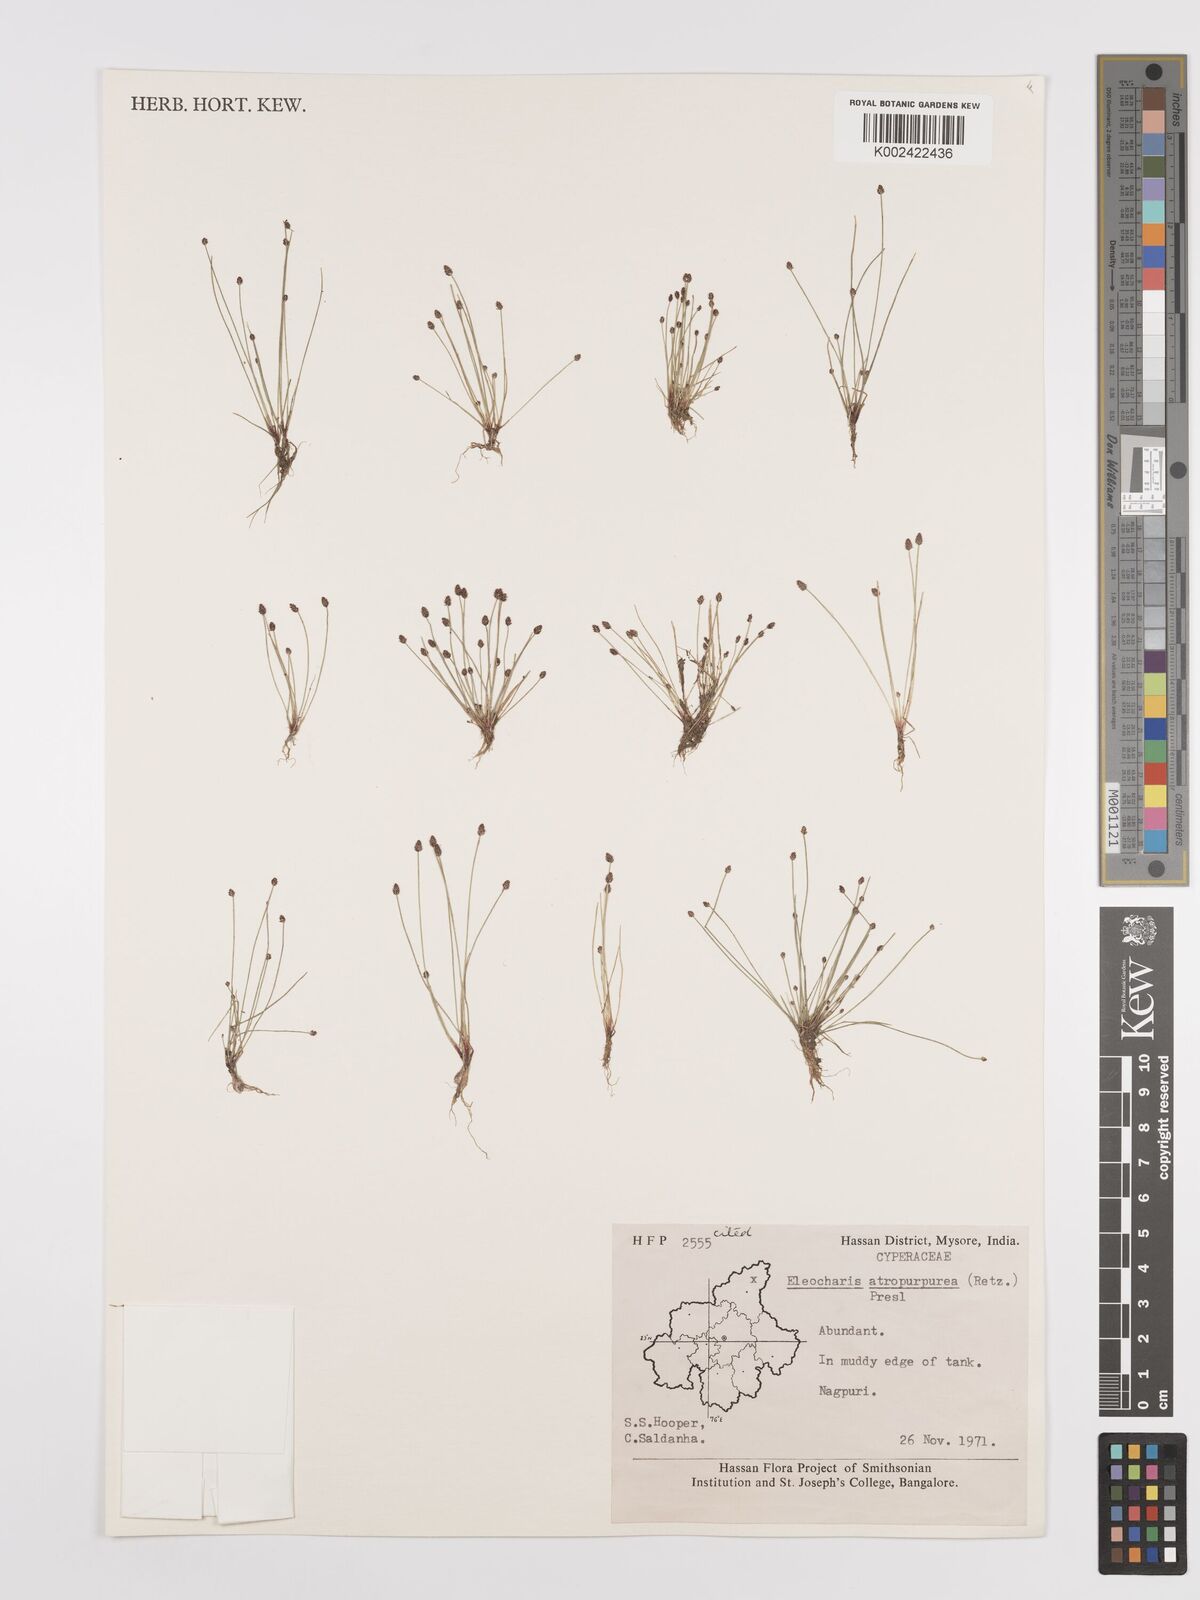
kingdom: Plantae
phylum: Tracheophyta
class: Liliopsida
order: Poales
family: Cyperaceae
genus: Eleocharis
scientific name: Eleocharis atropurpurea
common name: Purple spikerush
